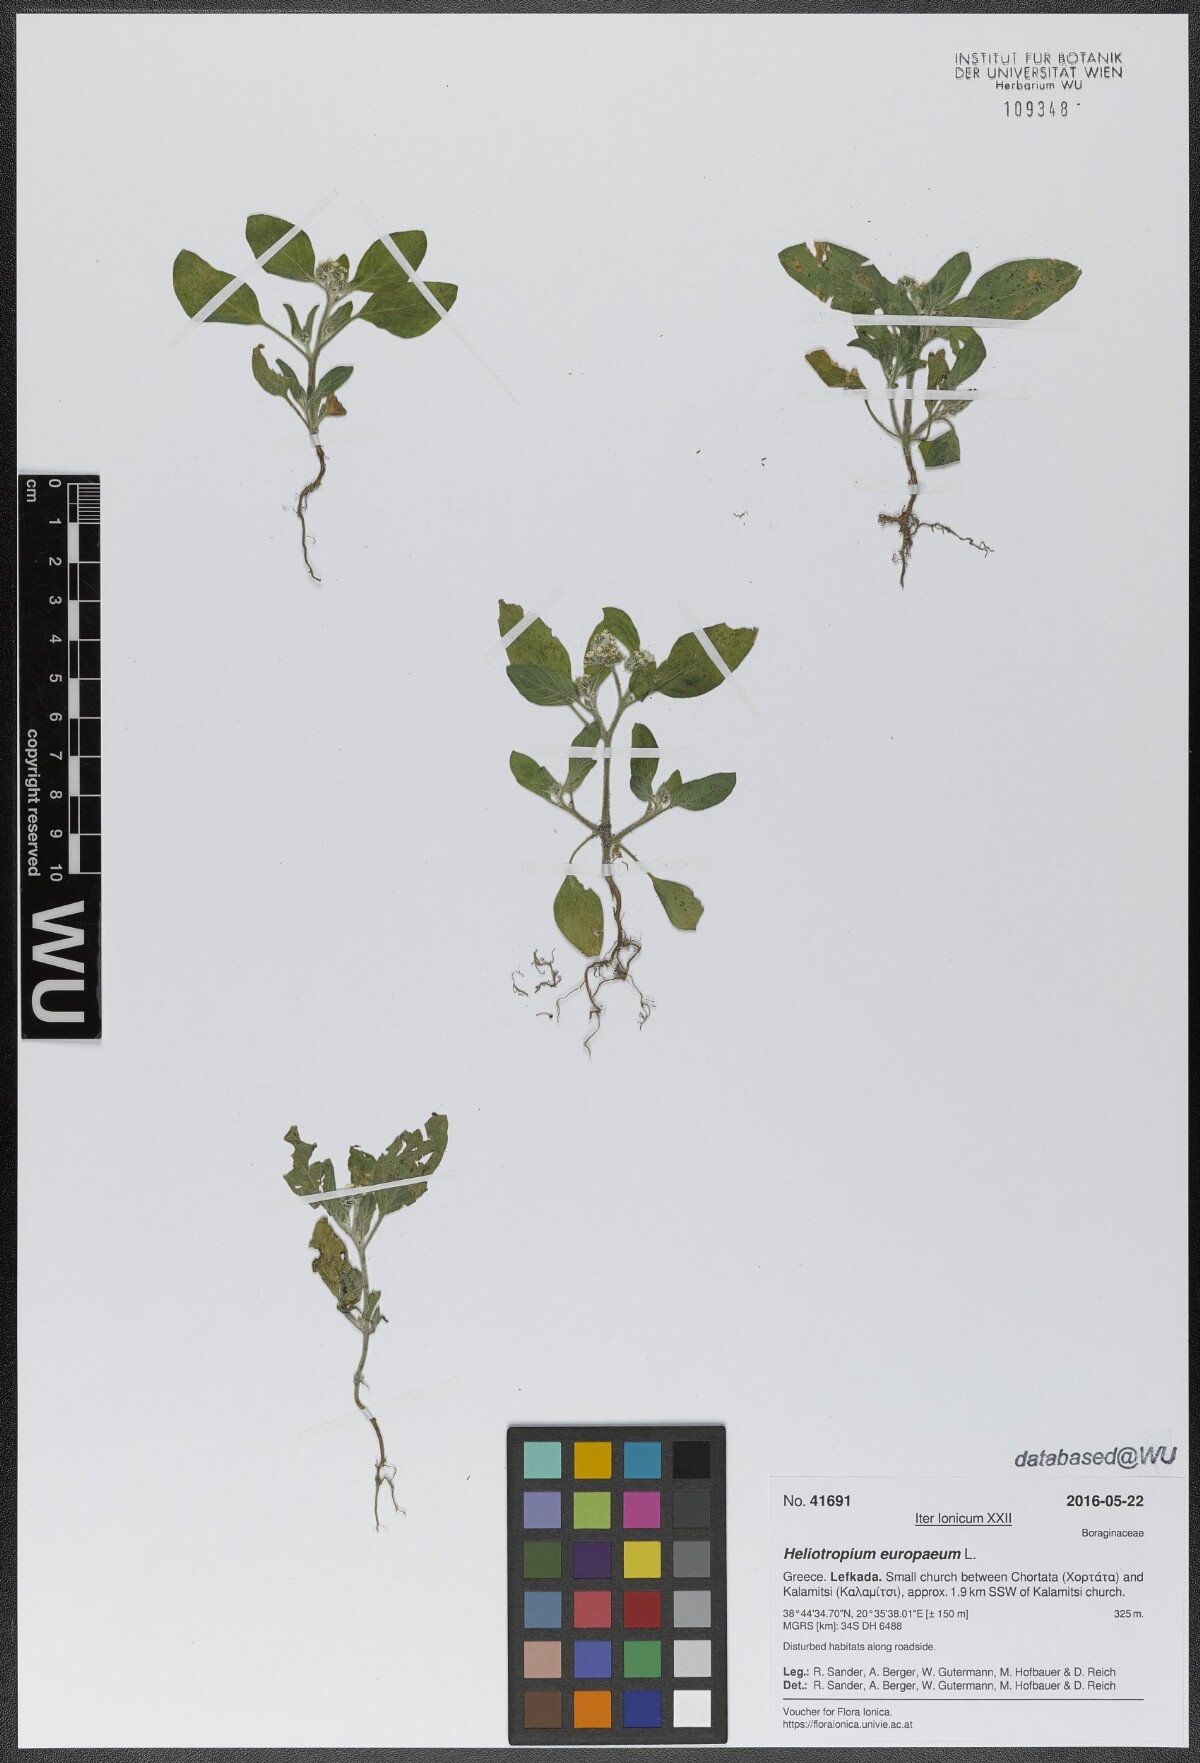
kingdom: Plantae
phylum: Tracheophyta
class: Magnoliopsida
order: Boraginales
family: Heliotropiaceae
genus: Heliotropium
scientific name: Heliotropium europaeum
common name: European heliotrope
